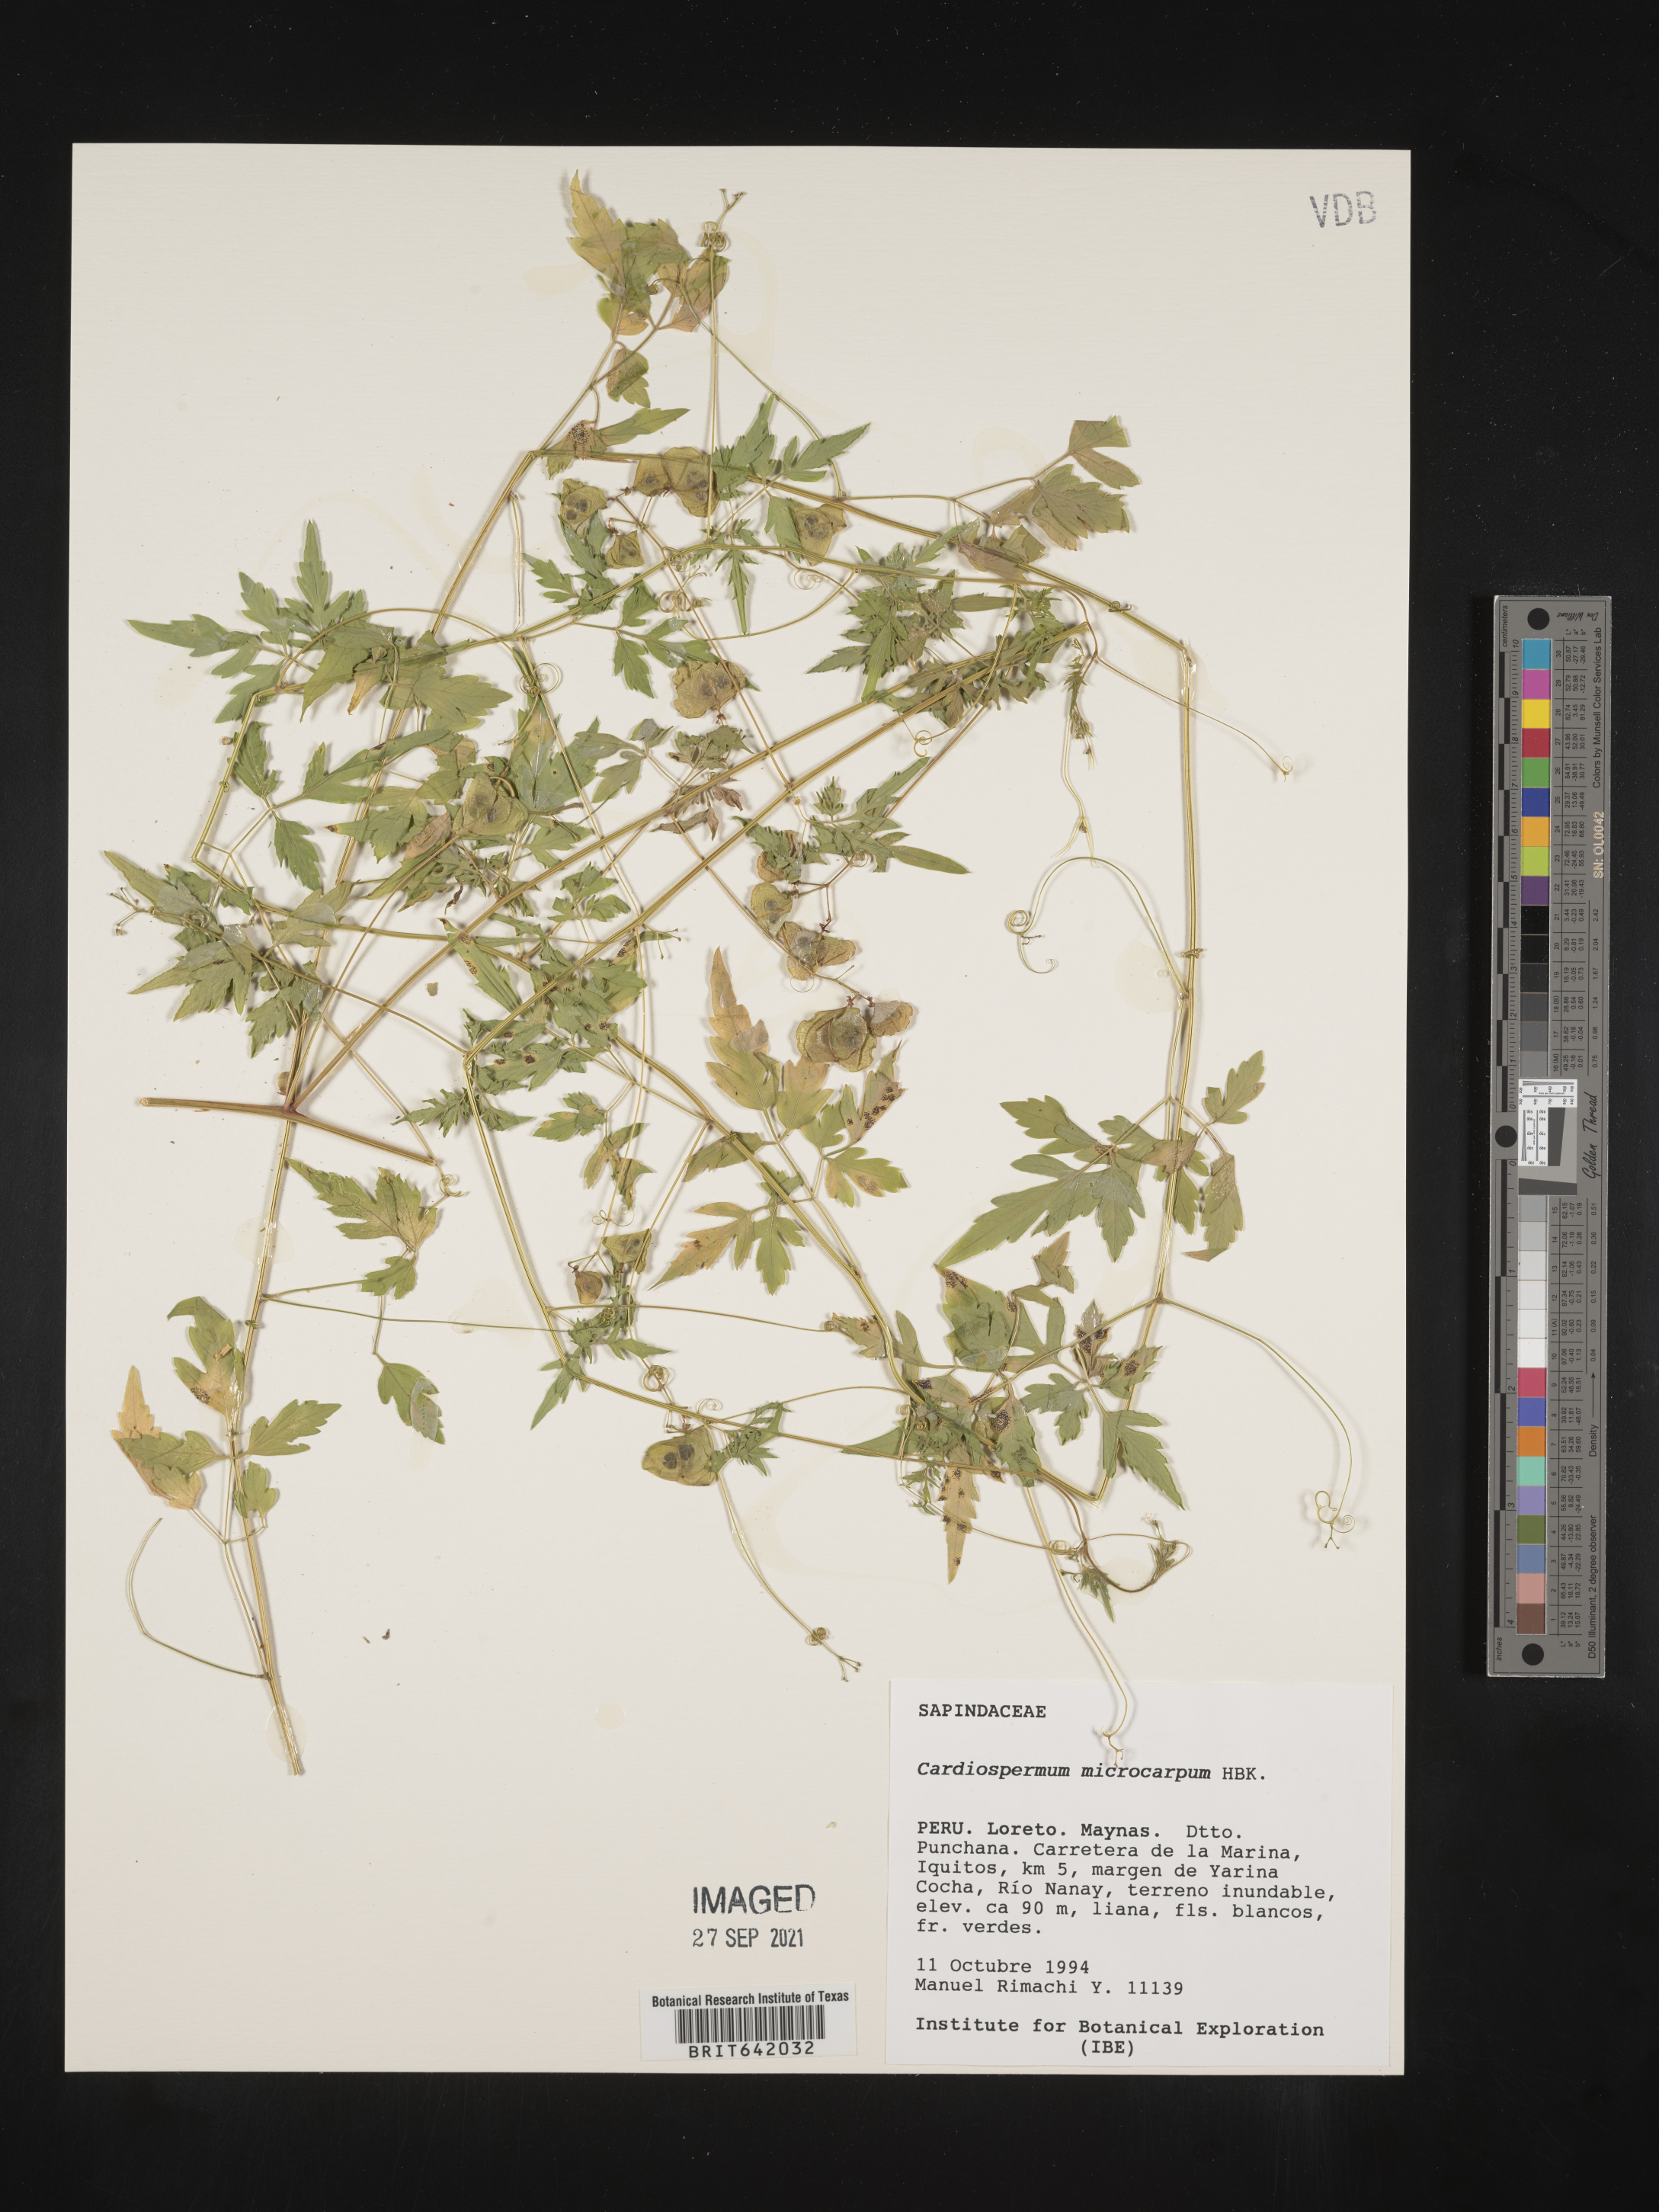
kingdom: Plantae
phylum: Tracheophyta
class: Magnoliopsida
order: Sapindales
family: Sapindaceae
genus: Cardiospermum
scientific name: Cardiospermum
